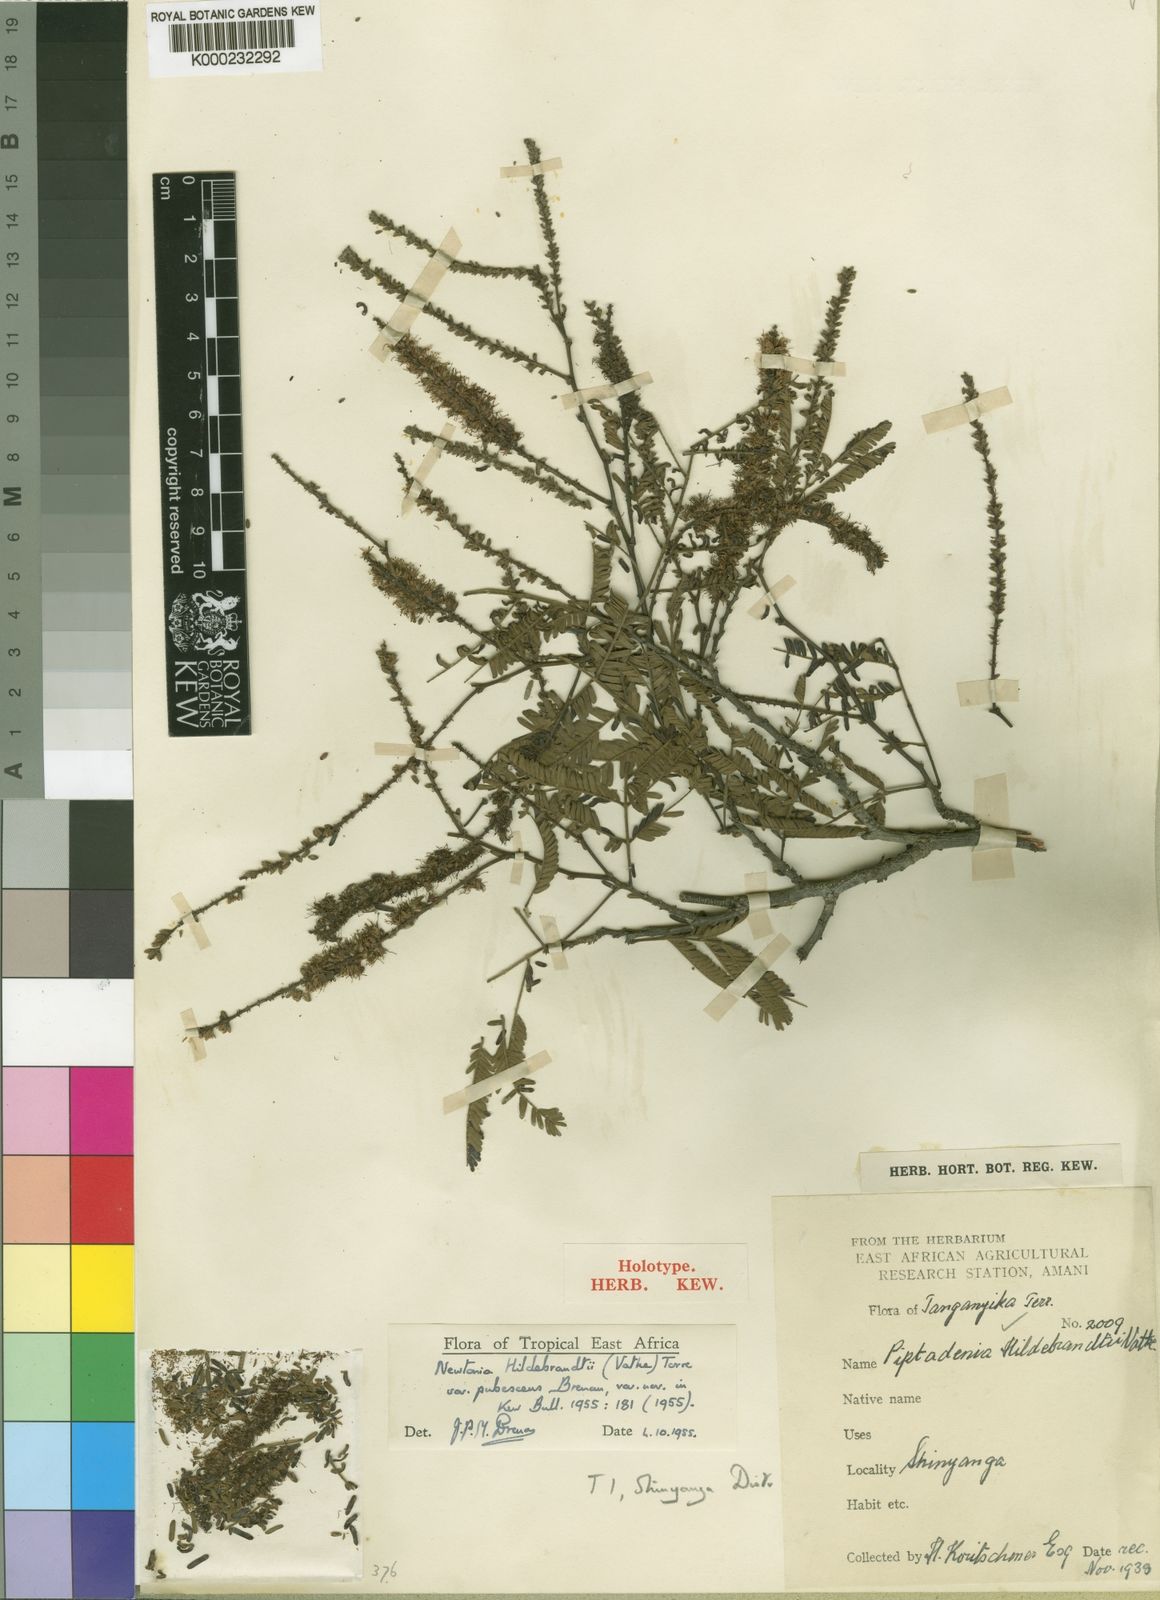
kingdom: Plantae
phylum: Tracheophyta
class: Magnoliopsida
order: Fabales
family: Fabaceae
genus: Newtonia
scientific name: Newtonia hildebrandtii
